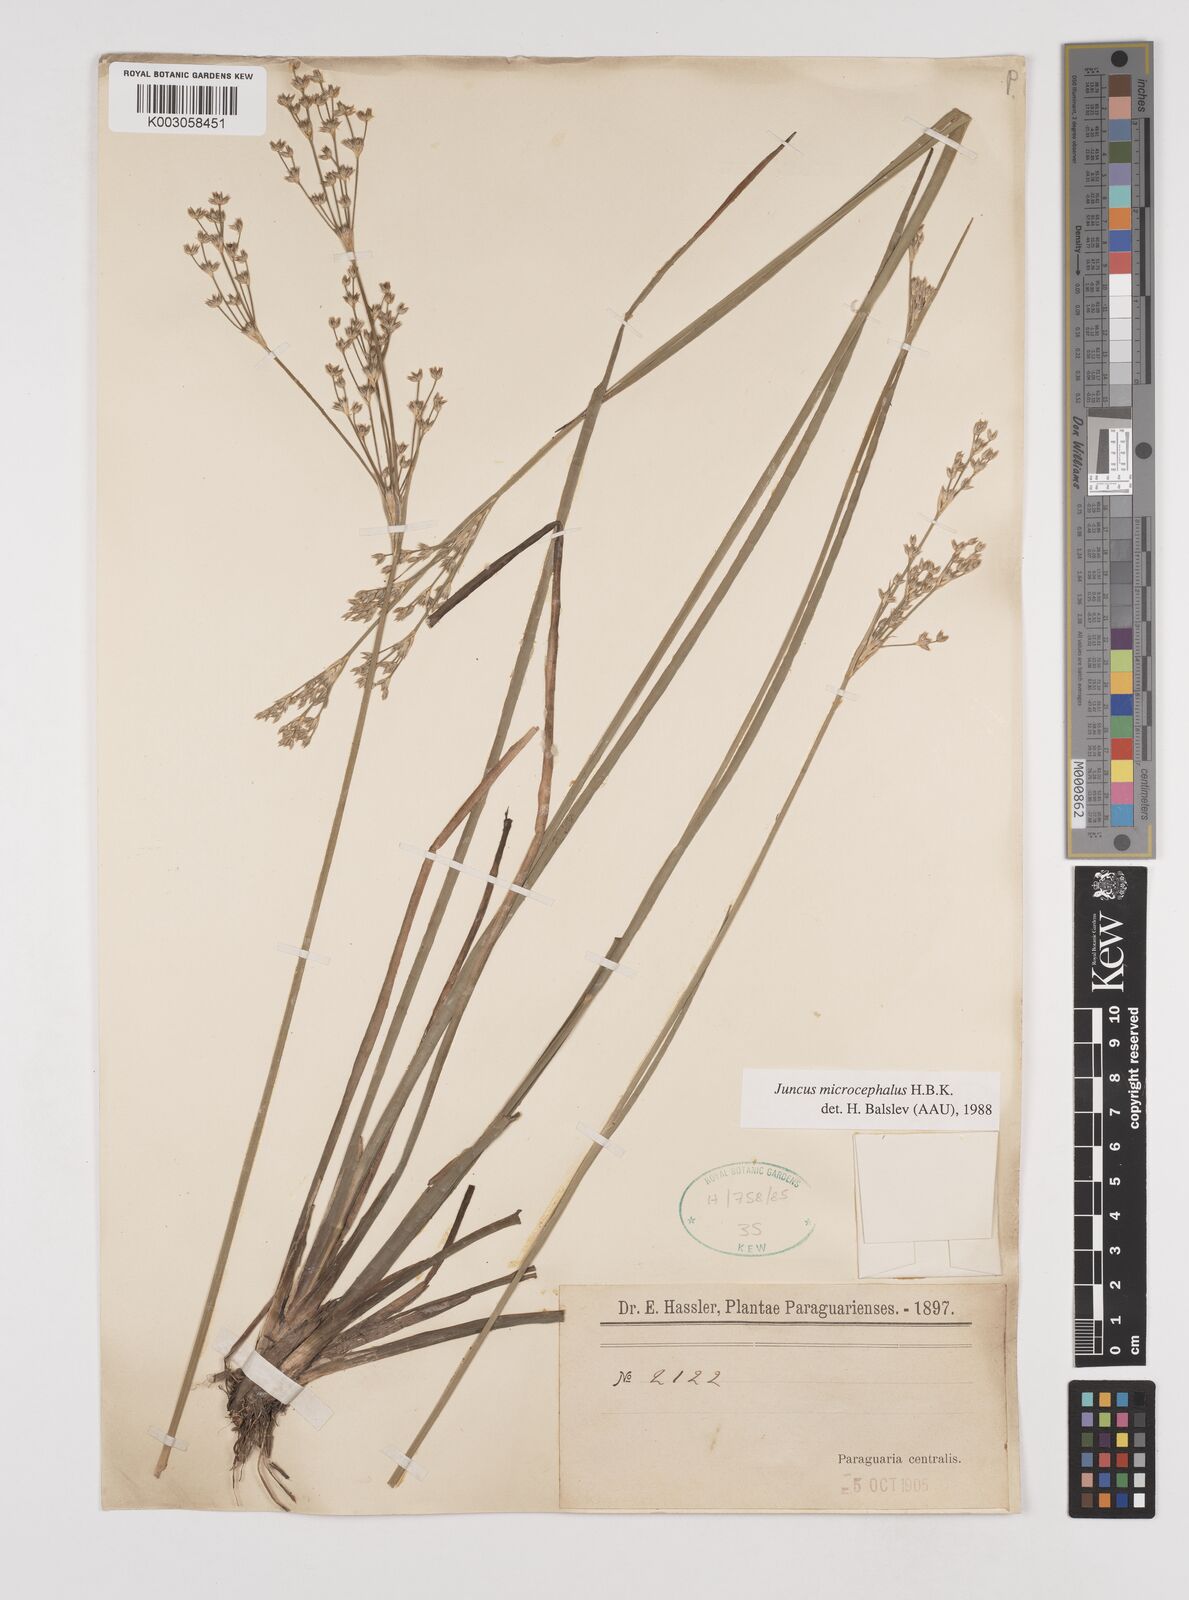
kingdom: Plantae
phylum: Tracheophyta
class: Liliopsida
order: Poales
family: Juncaceae
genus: Juncus
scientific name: Juncus microcephalus
